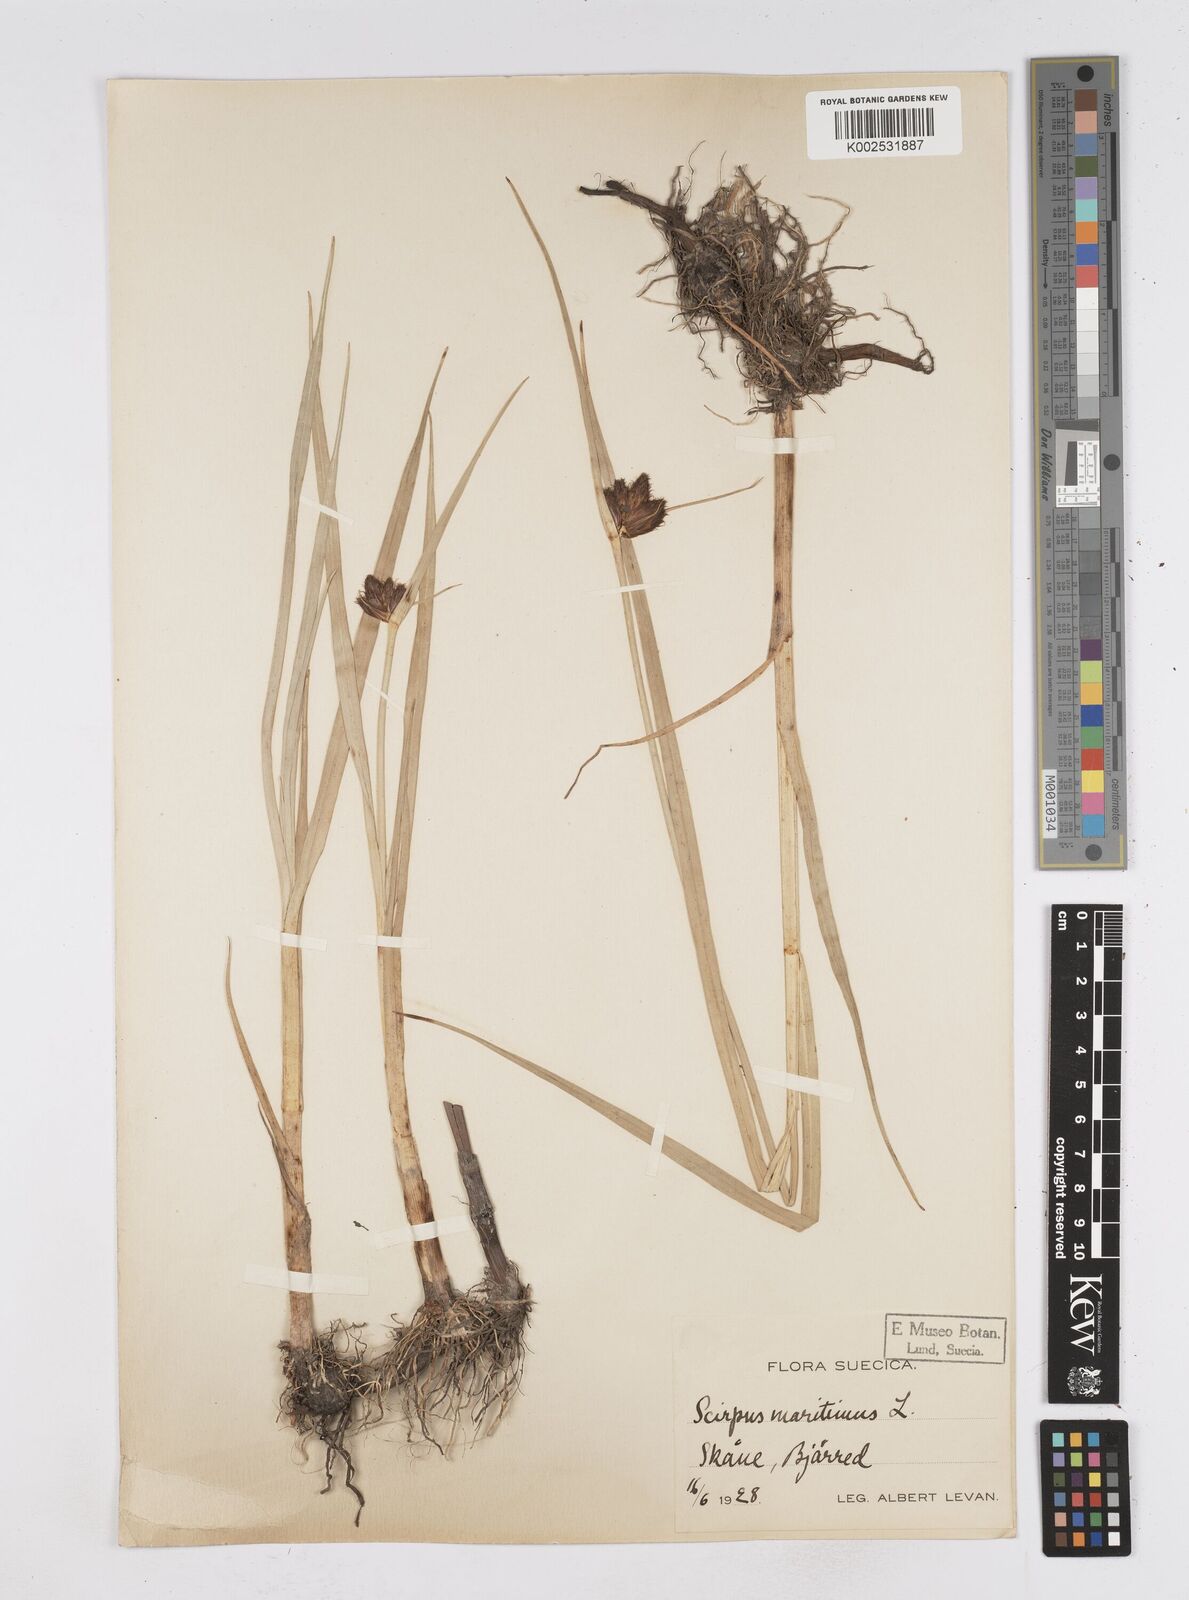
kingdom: Plantae
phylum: Tracheophyta
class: Liliopsida
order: Poales
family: Cyperaceae
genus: Bolboschoenus
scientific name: Bolboschoenus maritimus
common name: Sea club-rush
